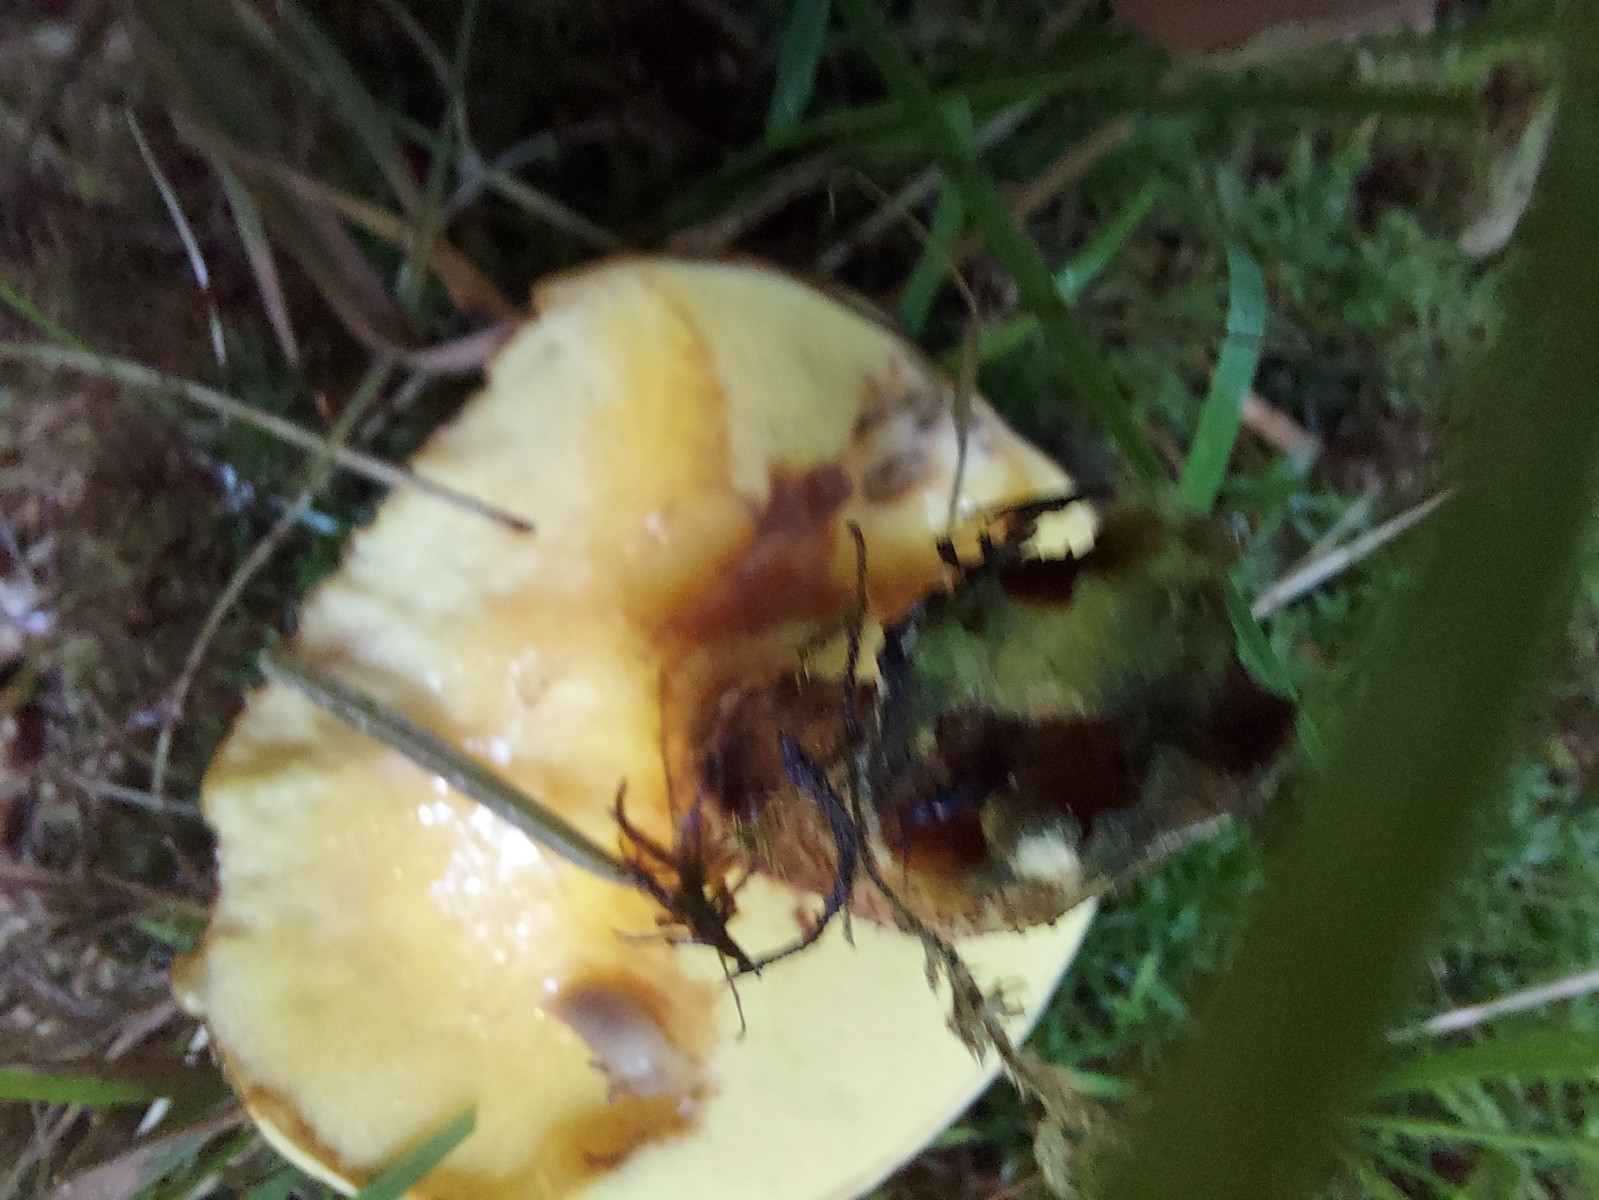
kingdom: Fungi
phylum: Basidiomycota
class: Agaricomycetes
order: Boletales
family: Suillaceae
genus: Suillus
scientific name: Suillus grevillei
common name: lærke-slimrørhat
